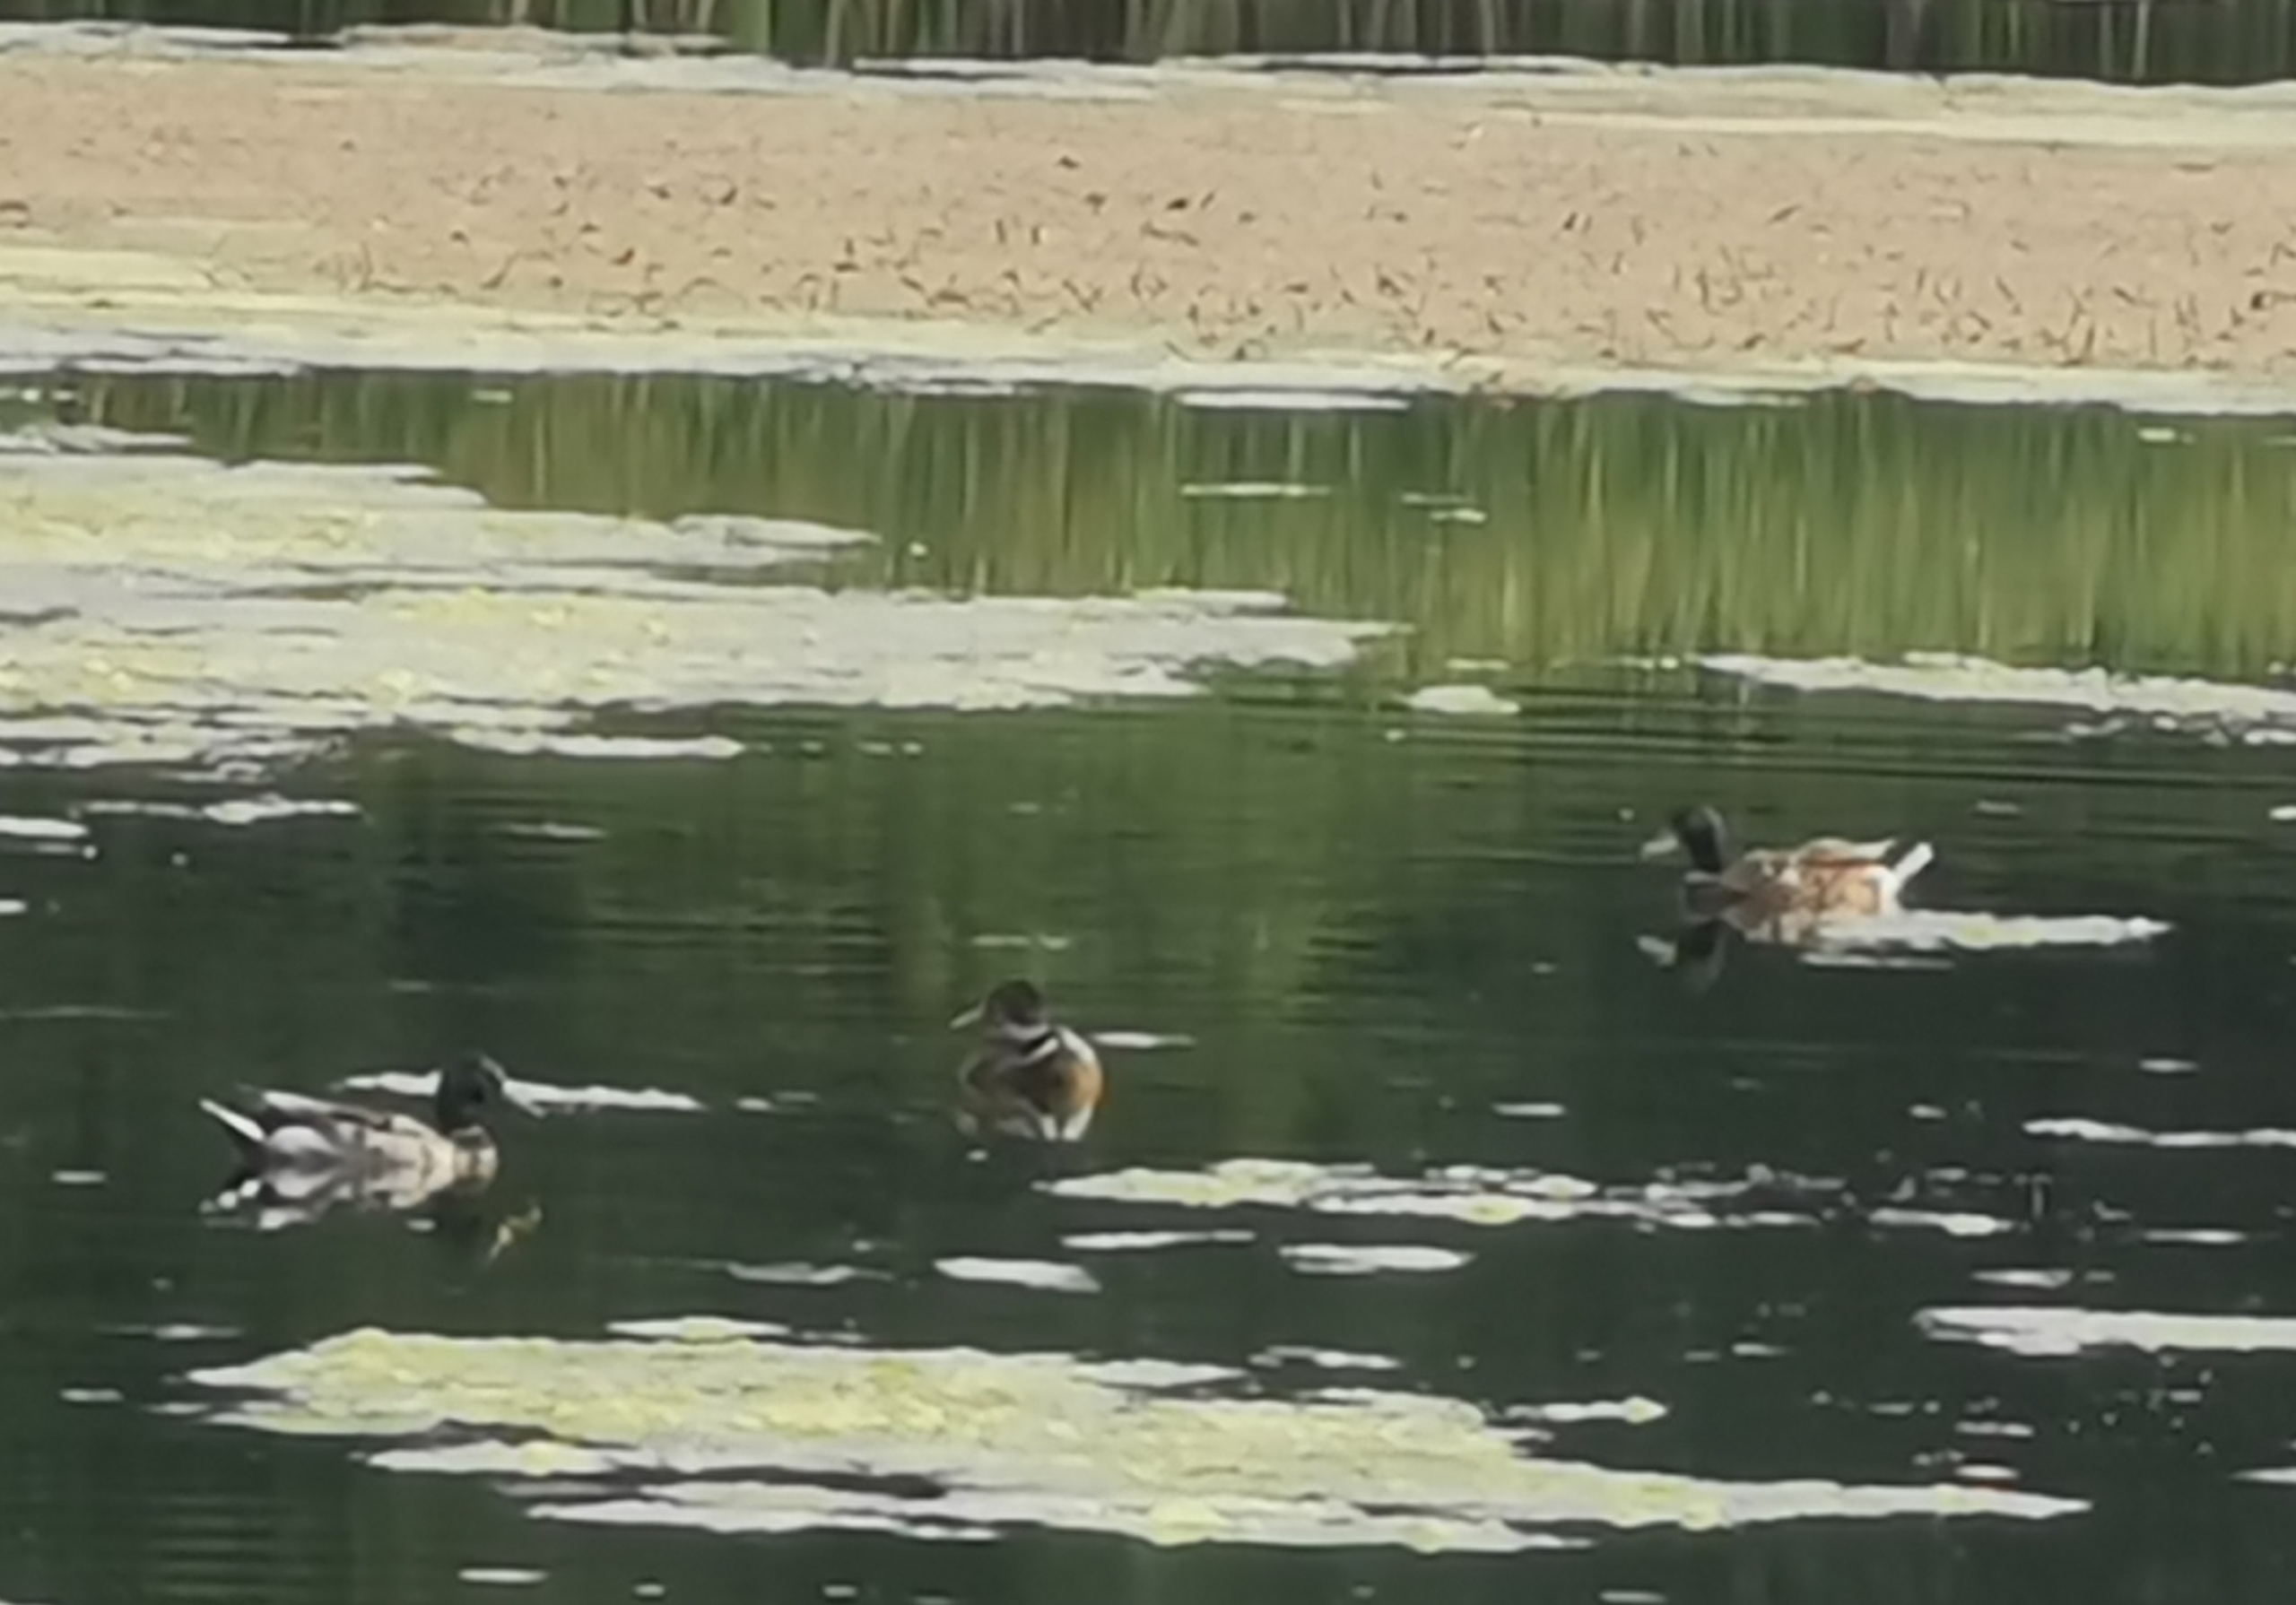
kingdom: Animalia
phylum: Chordata
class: Aves
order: Anseriformes
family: Anatidae
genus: Anas
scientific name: Anas platyrhynchos
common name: Gråand
